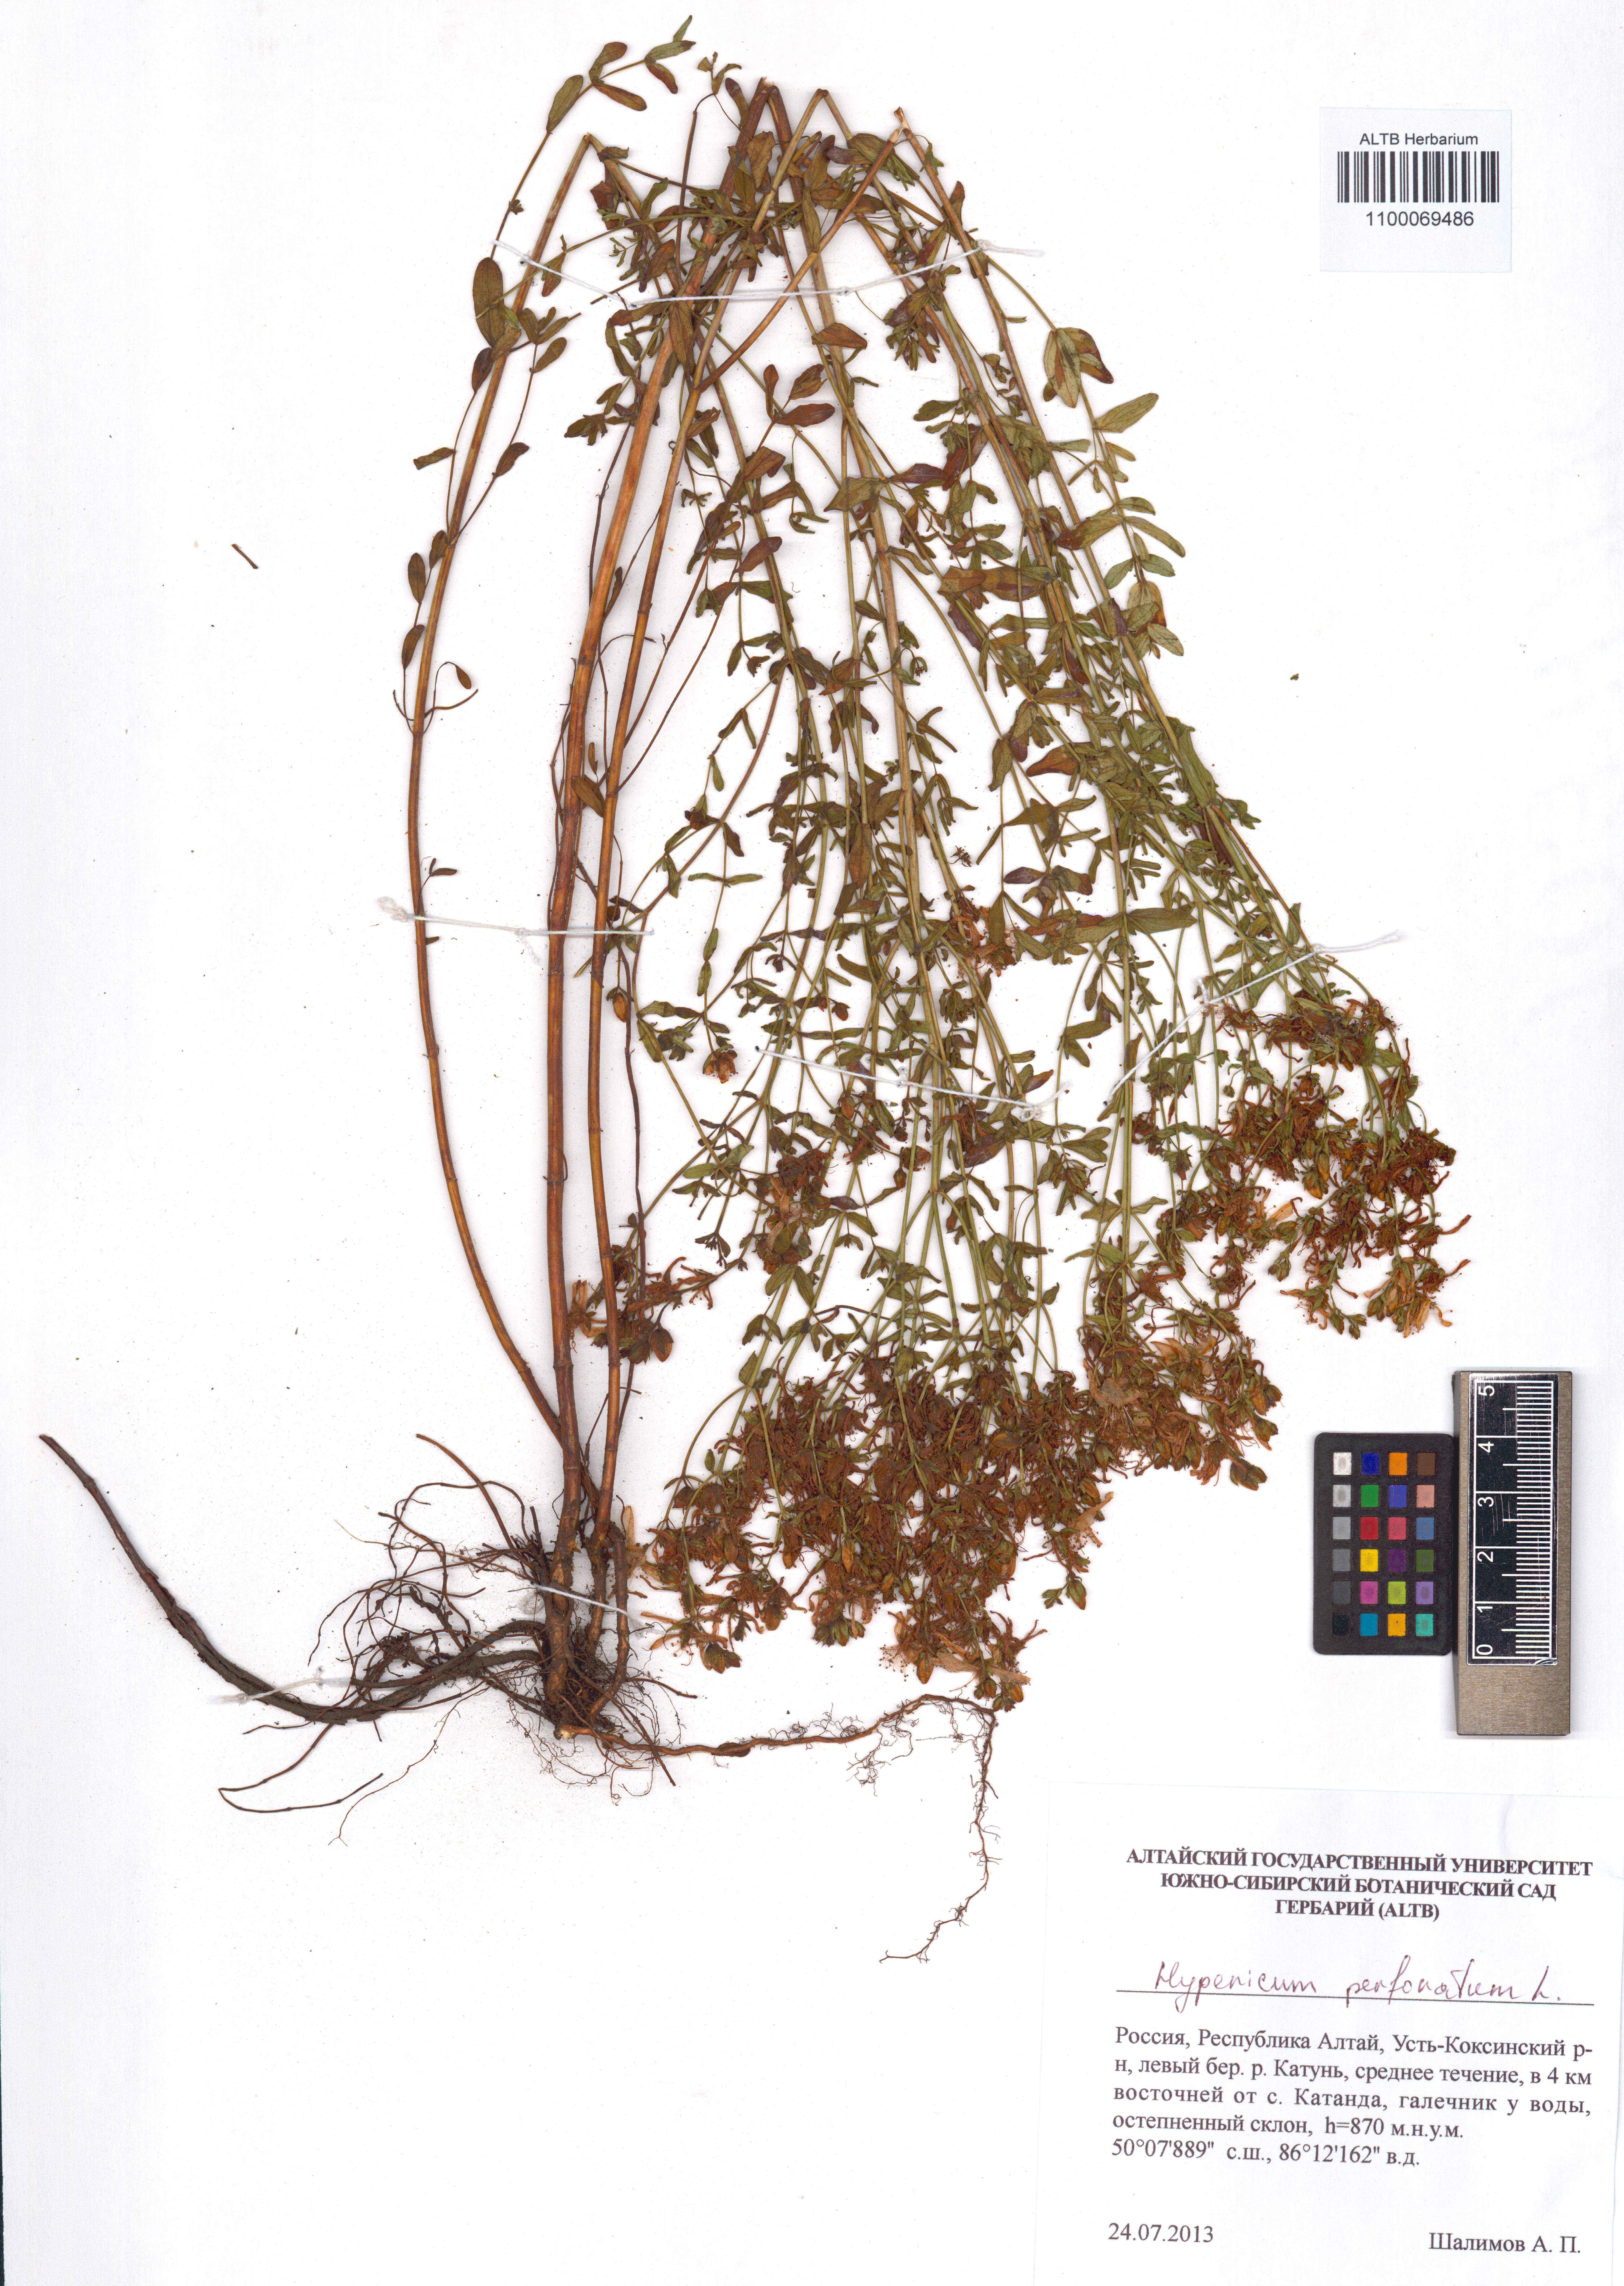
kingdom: Plantae
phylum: Tracheophyta
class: Magnoliopsida
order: Malpighiales
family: Hypericaceae
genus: Hypericum
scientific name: Hypericum perforatum
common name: Common st. johnswort
